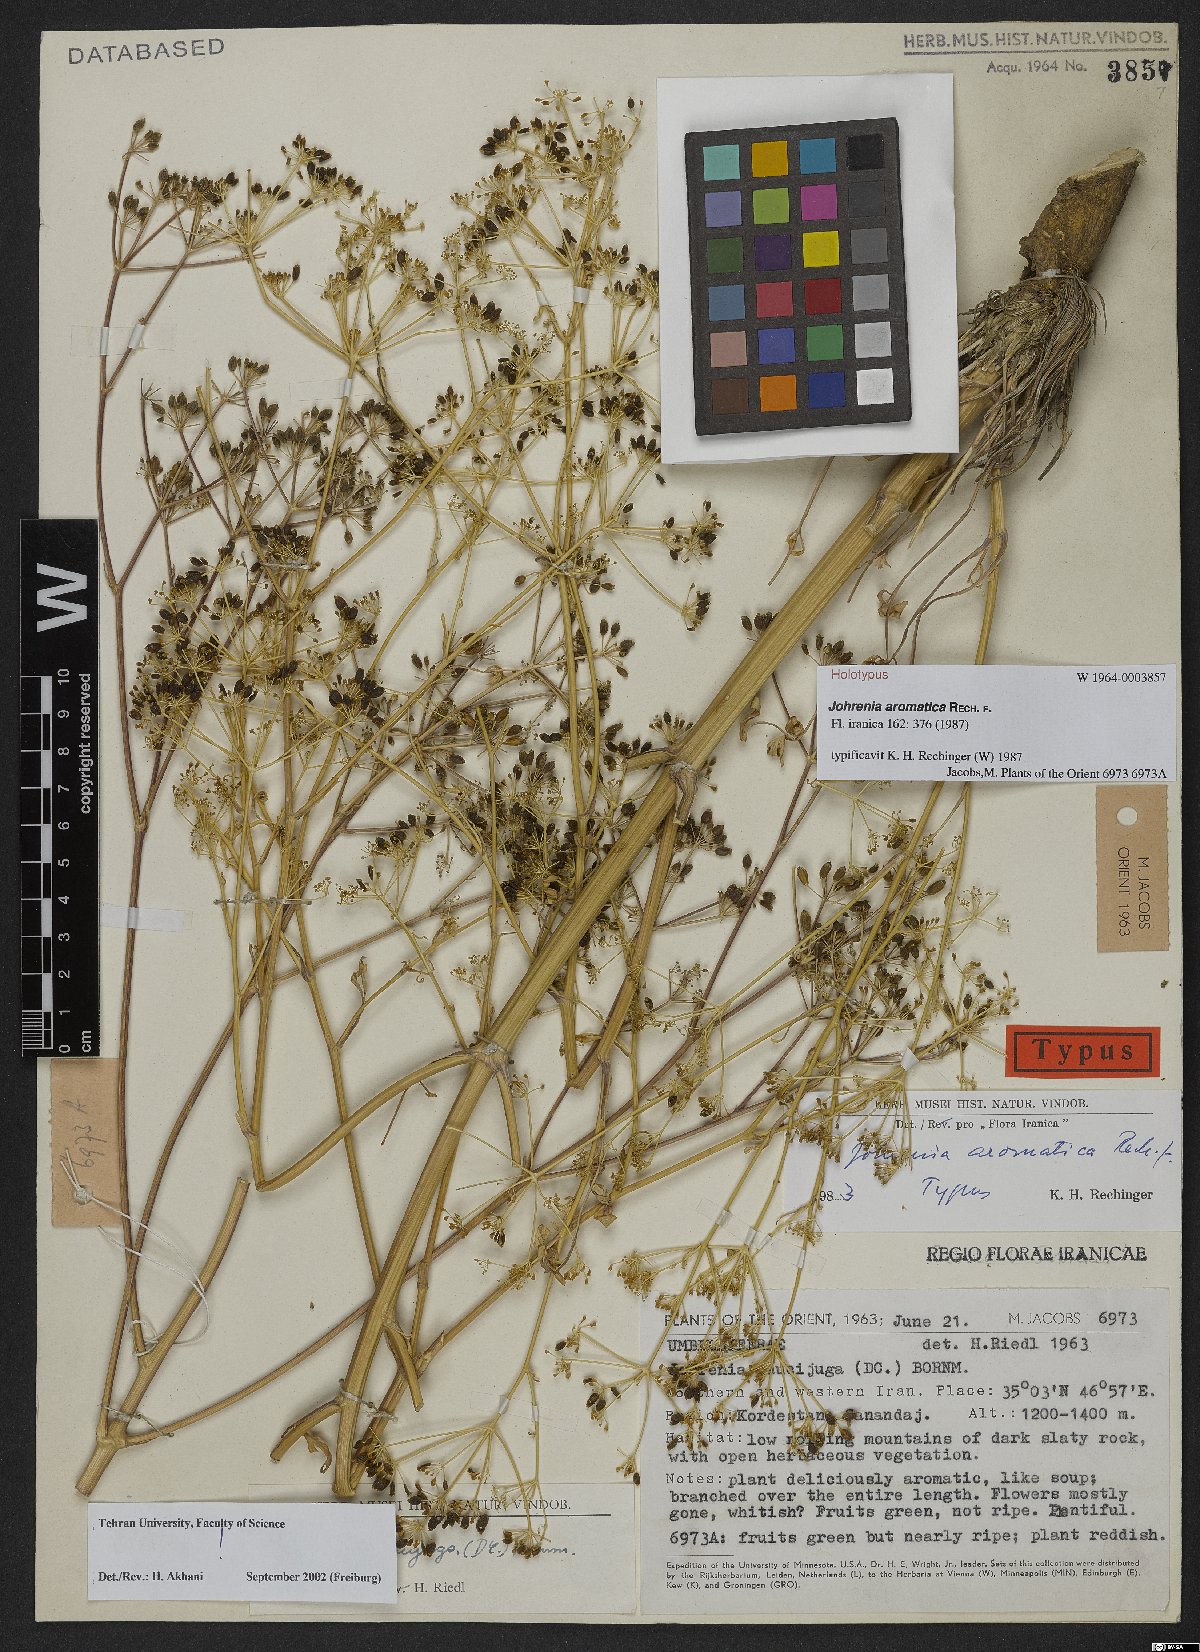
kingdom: Plantae
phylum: Tracheophyta
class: Magnoliopsida
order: Apiales
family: Apiaceae
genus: Dichoropetalum
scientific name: Dichoropetalum aromaticum
